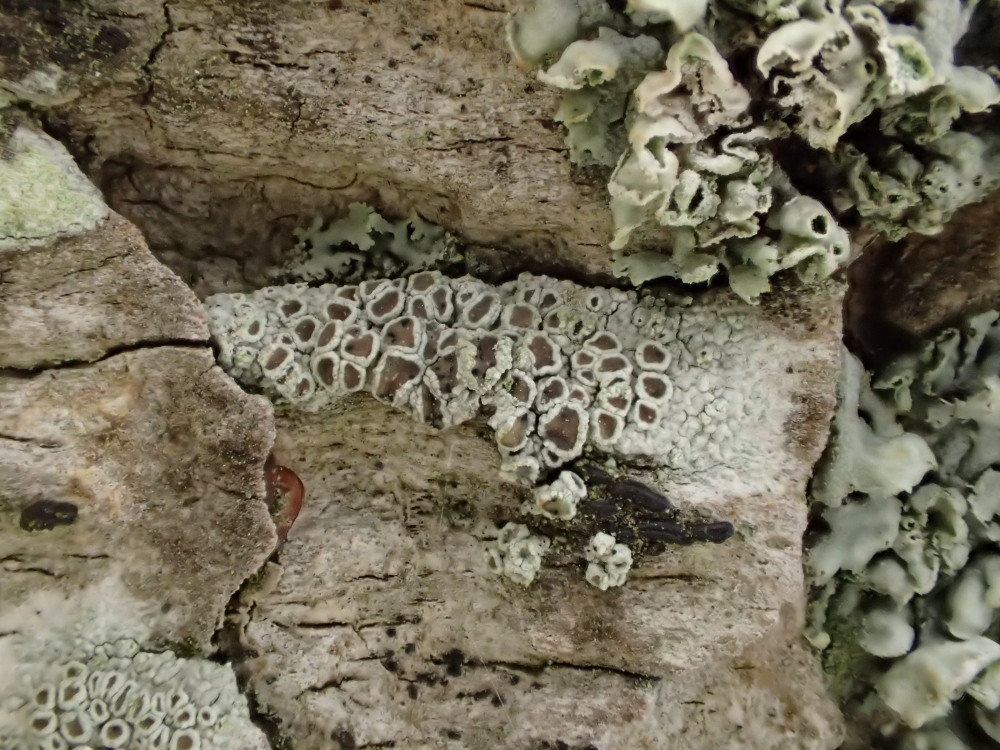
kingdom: Fungi
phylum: Ascomycota
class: Lecanoromycetes
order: Lecanorales
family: Lecanoraceae
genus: Lecanora
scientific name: Lecanora chlarotera
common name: brun kantskivelav
